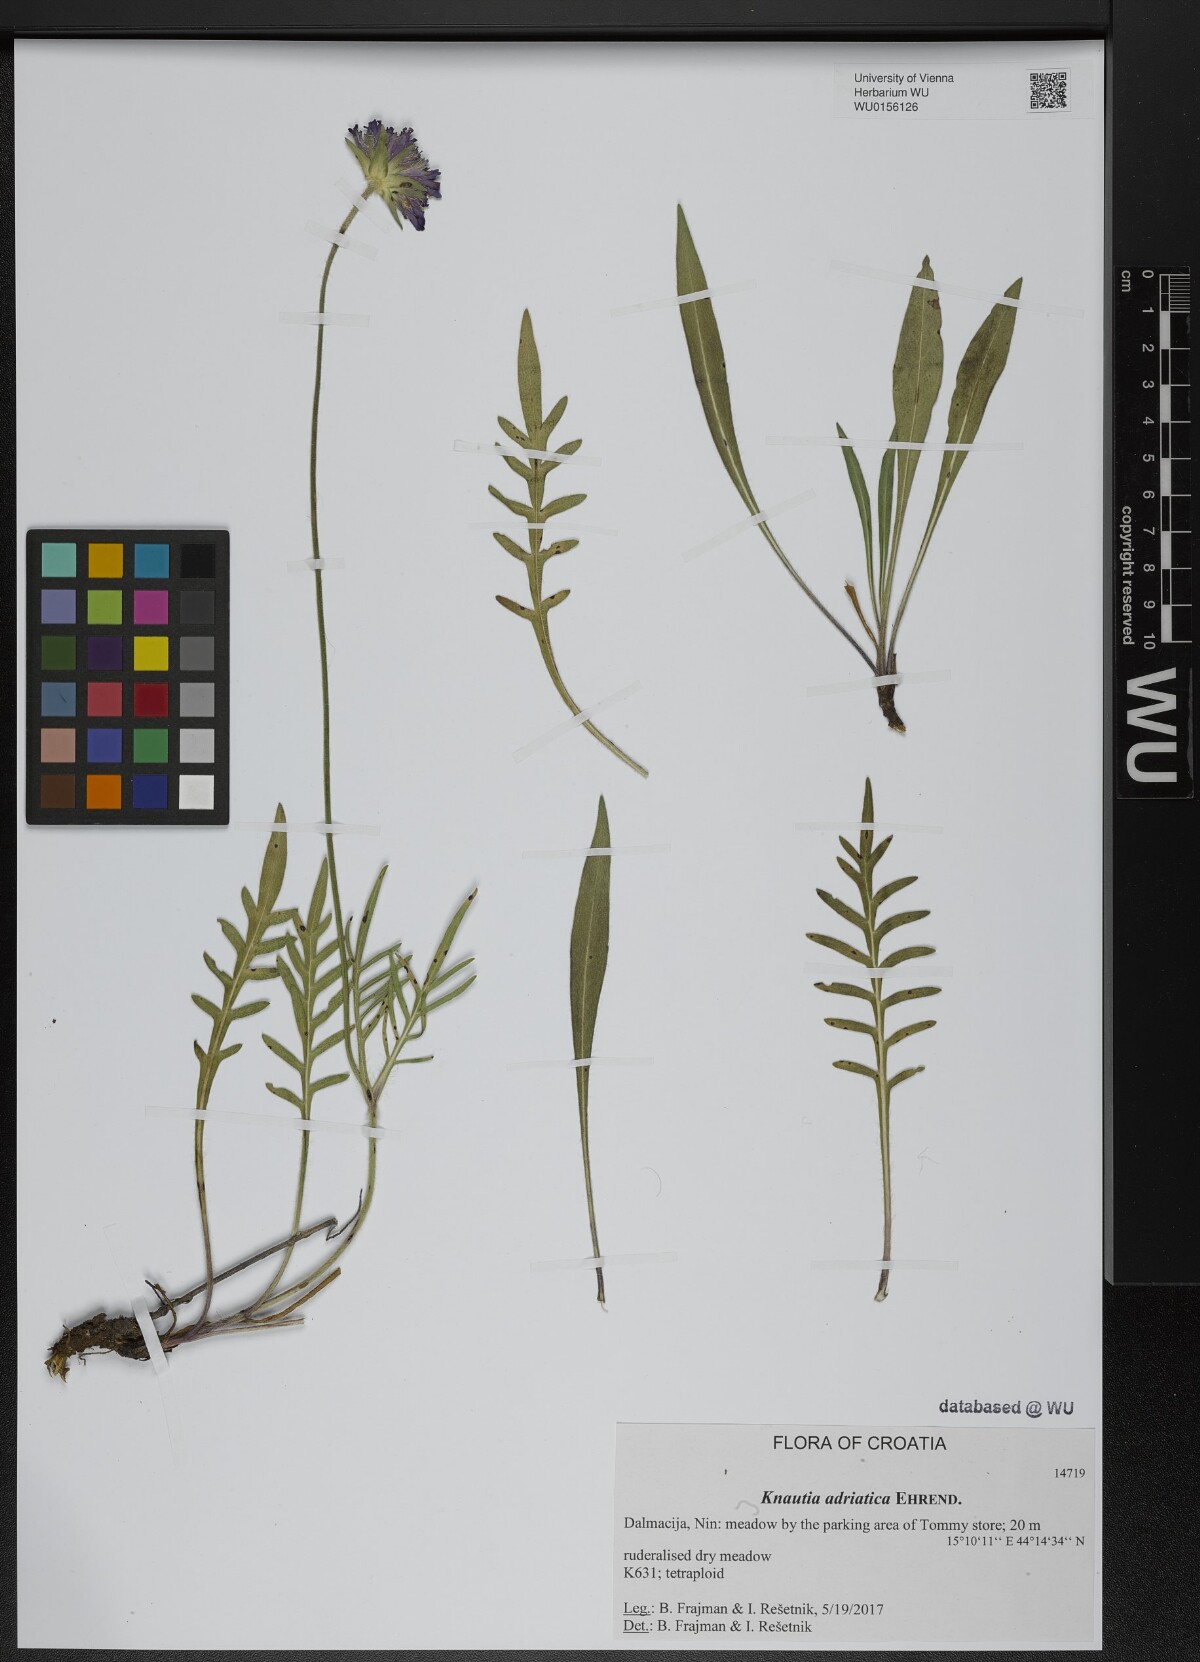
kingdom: Plantae
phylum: Tracheophyta
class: Magnoliopsida
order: Dipsacales
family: Caprifoliaceae
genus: Knautia
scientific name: Knautia adriatica
